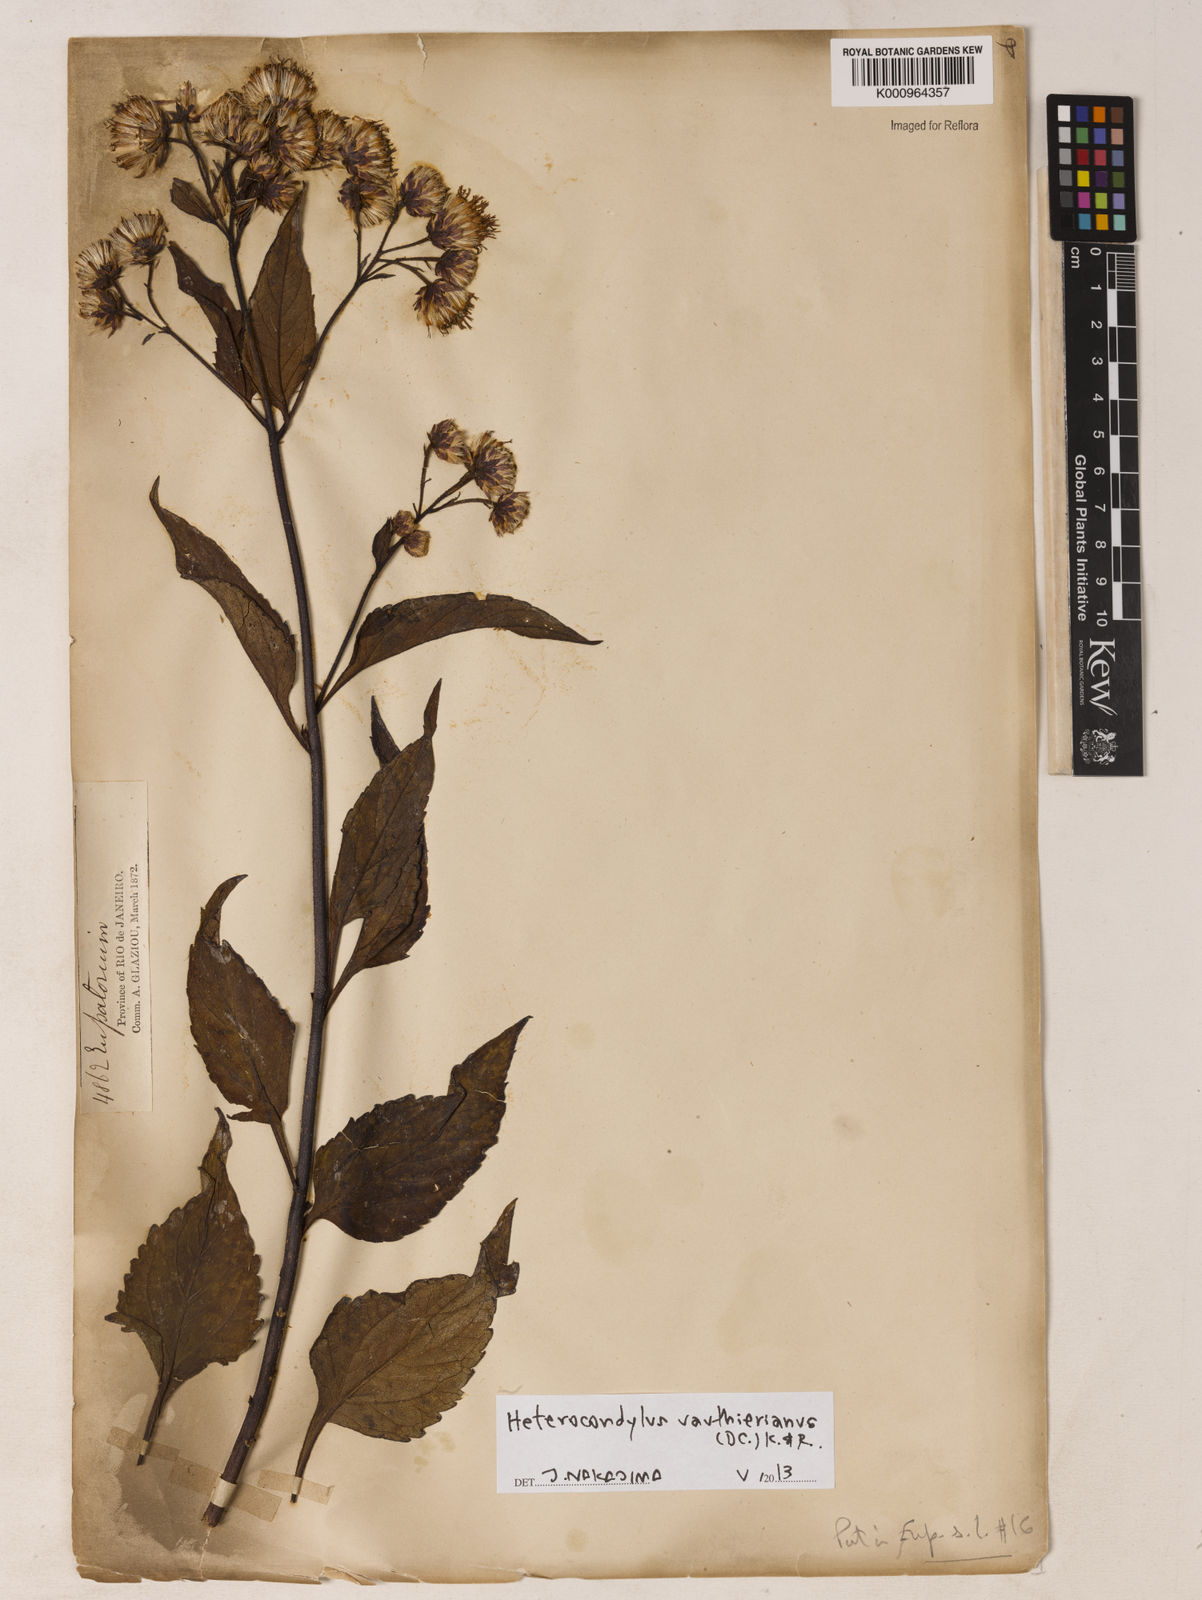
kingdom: Plantae
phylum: Tracheophyta
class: Magnoliopsida
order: Asterales
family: Asteraceae
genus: Heterocondylus
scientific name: Heterocondylus alatus
